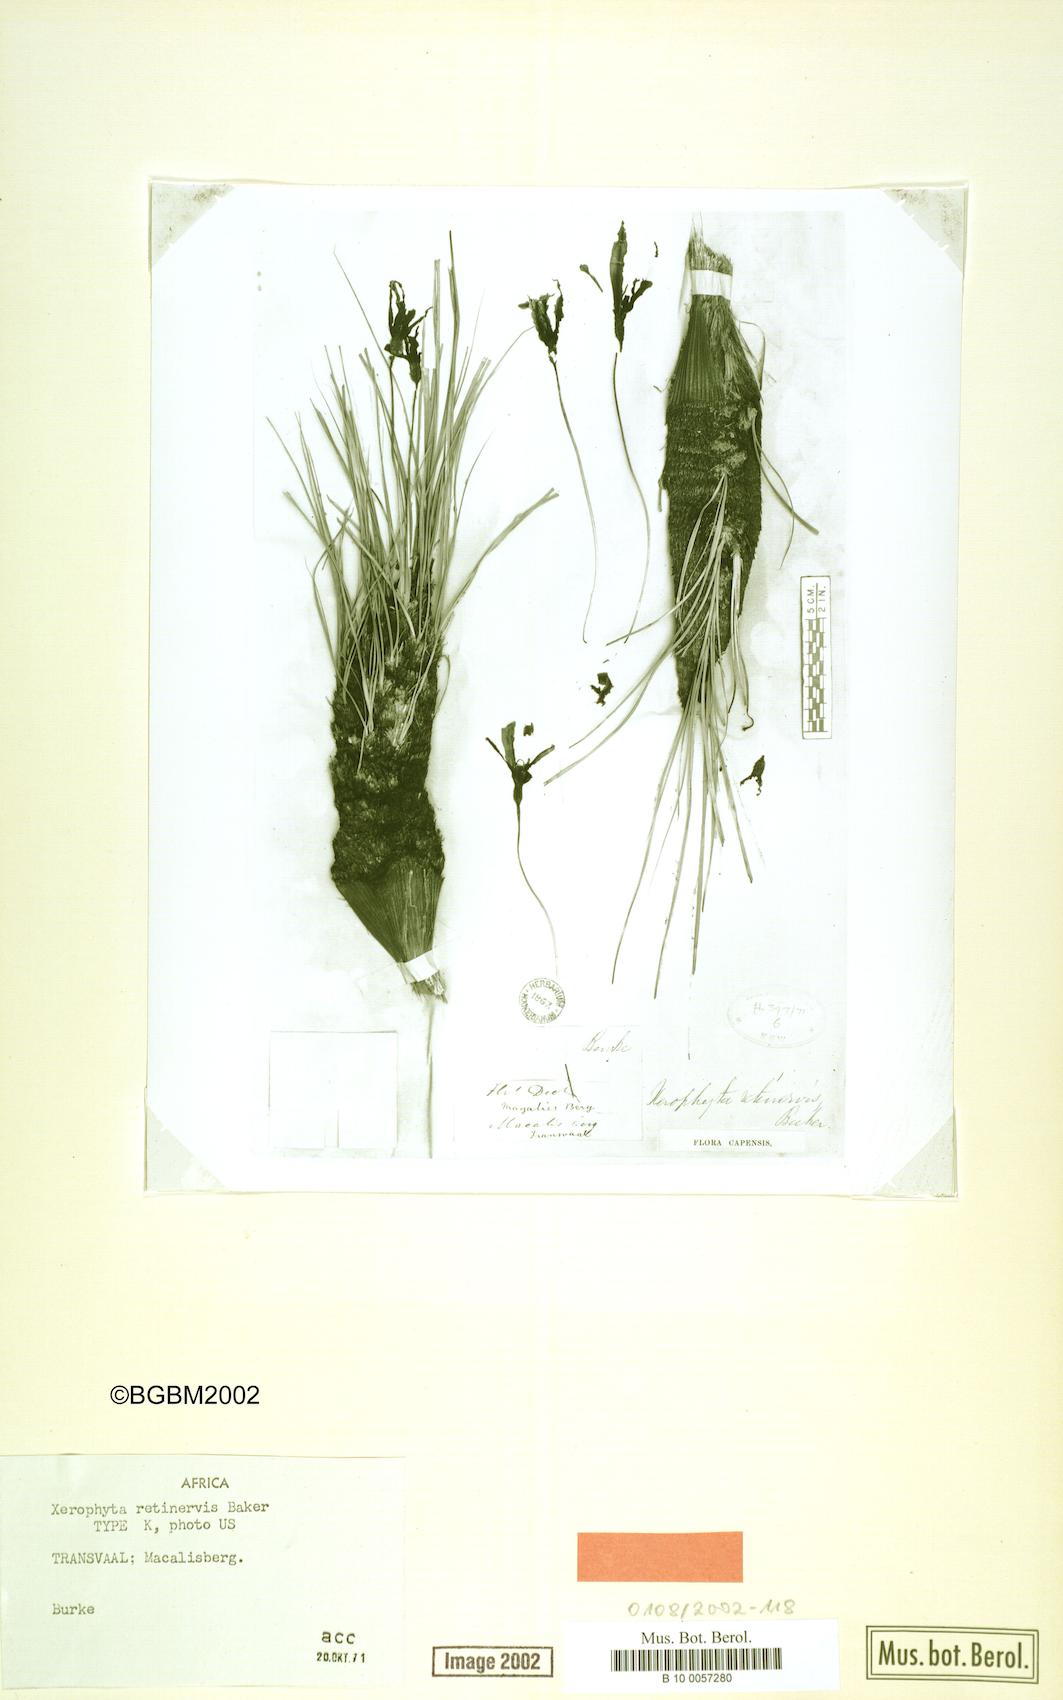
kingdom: Plantae
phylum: Tracheophyta
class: Liliopsida
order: Pandanales
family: Velloziaceae
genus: Xerophyta
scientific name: Xerophyta retinervis
